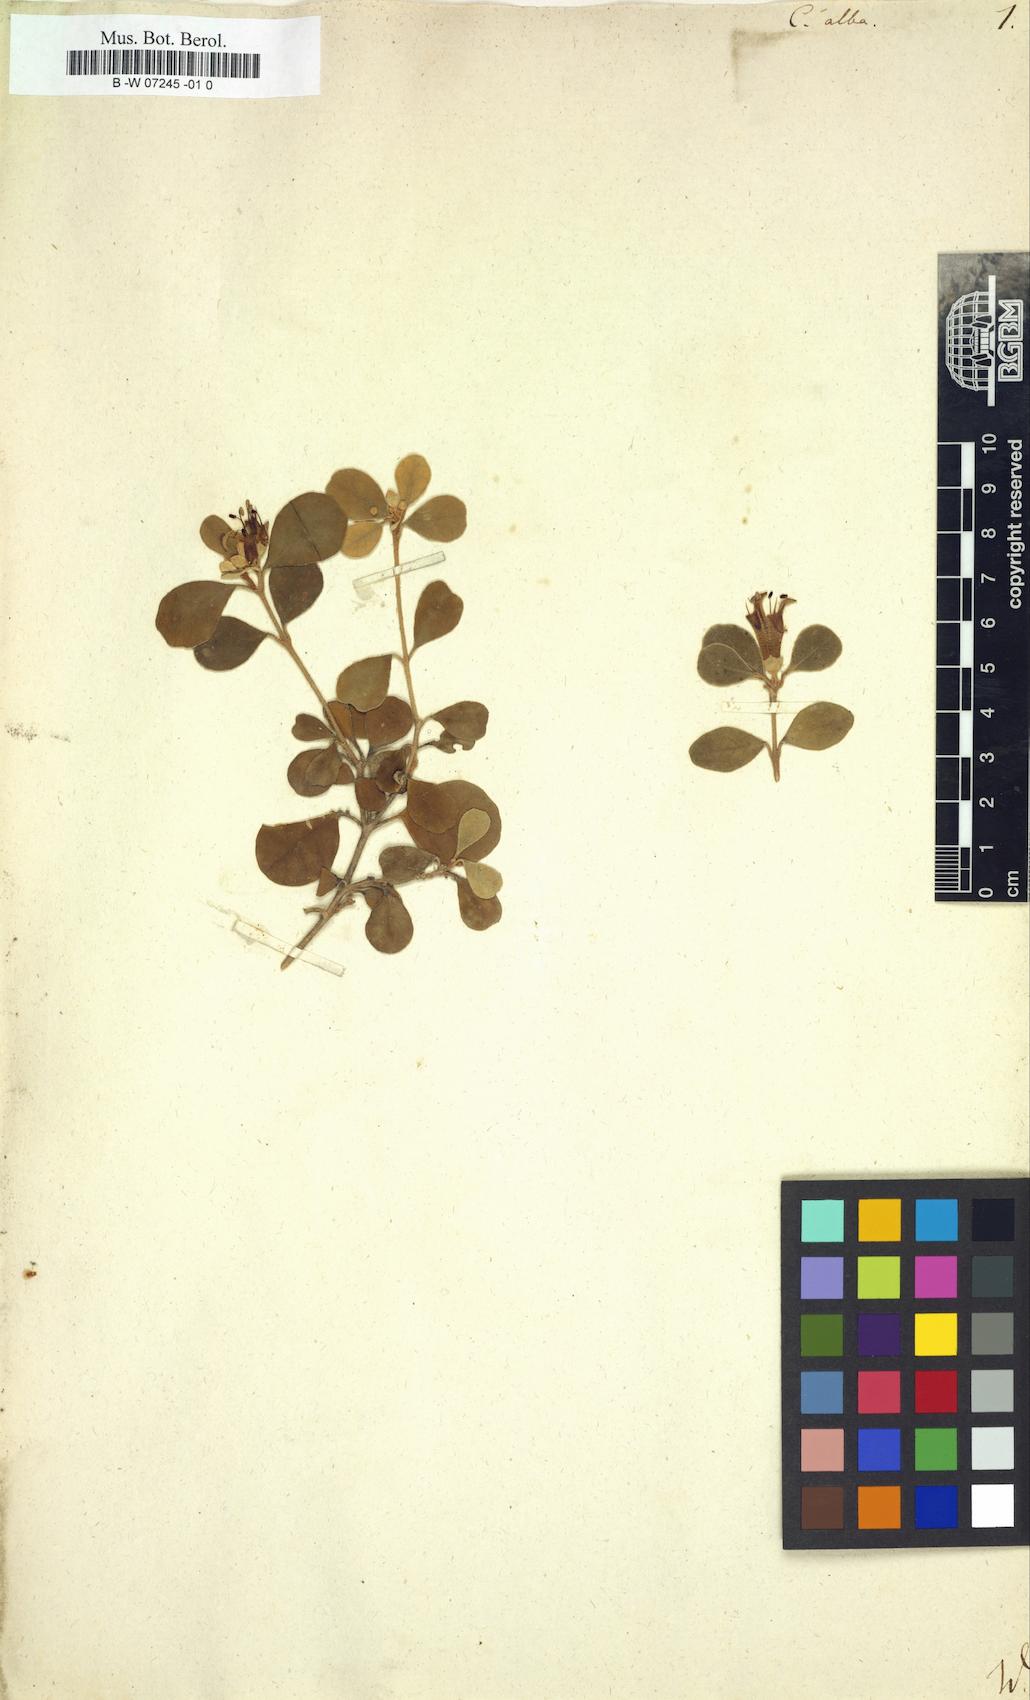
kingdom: Plantae
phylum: Tracheophyta
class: Magnoliopsida
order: Sapindales
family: Rutaceae
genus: Correa
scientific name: Correa alba
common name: White correa
